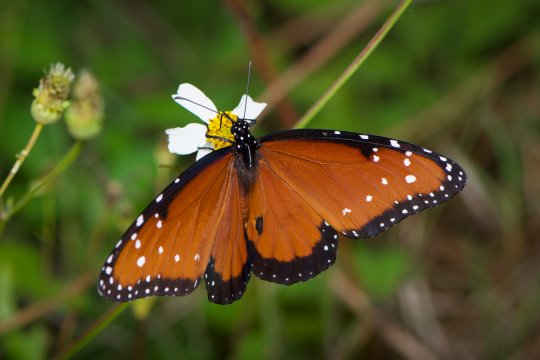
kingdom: Animalia
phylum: Arthropoda
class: Insecta
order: Lepidoptera
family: Nymphalidae
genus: Danaus
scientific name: Danaus gilippus
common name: Queen
